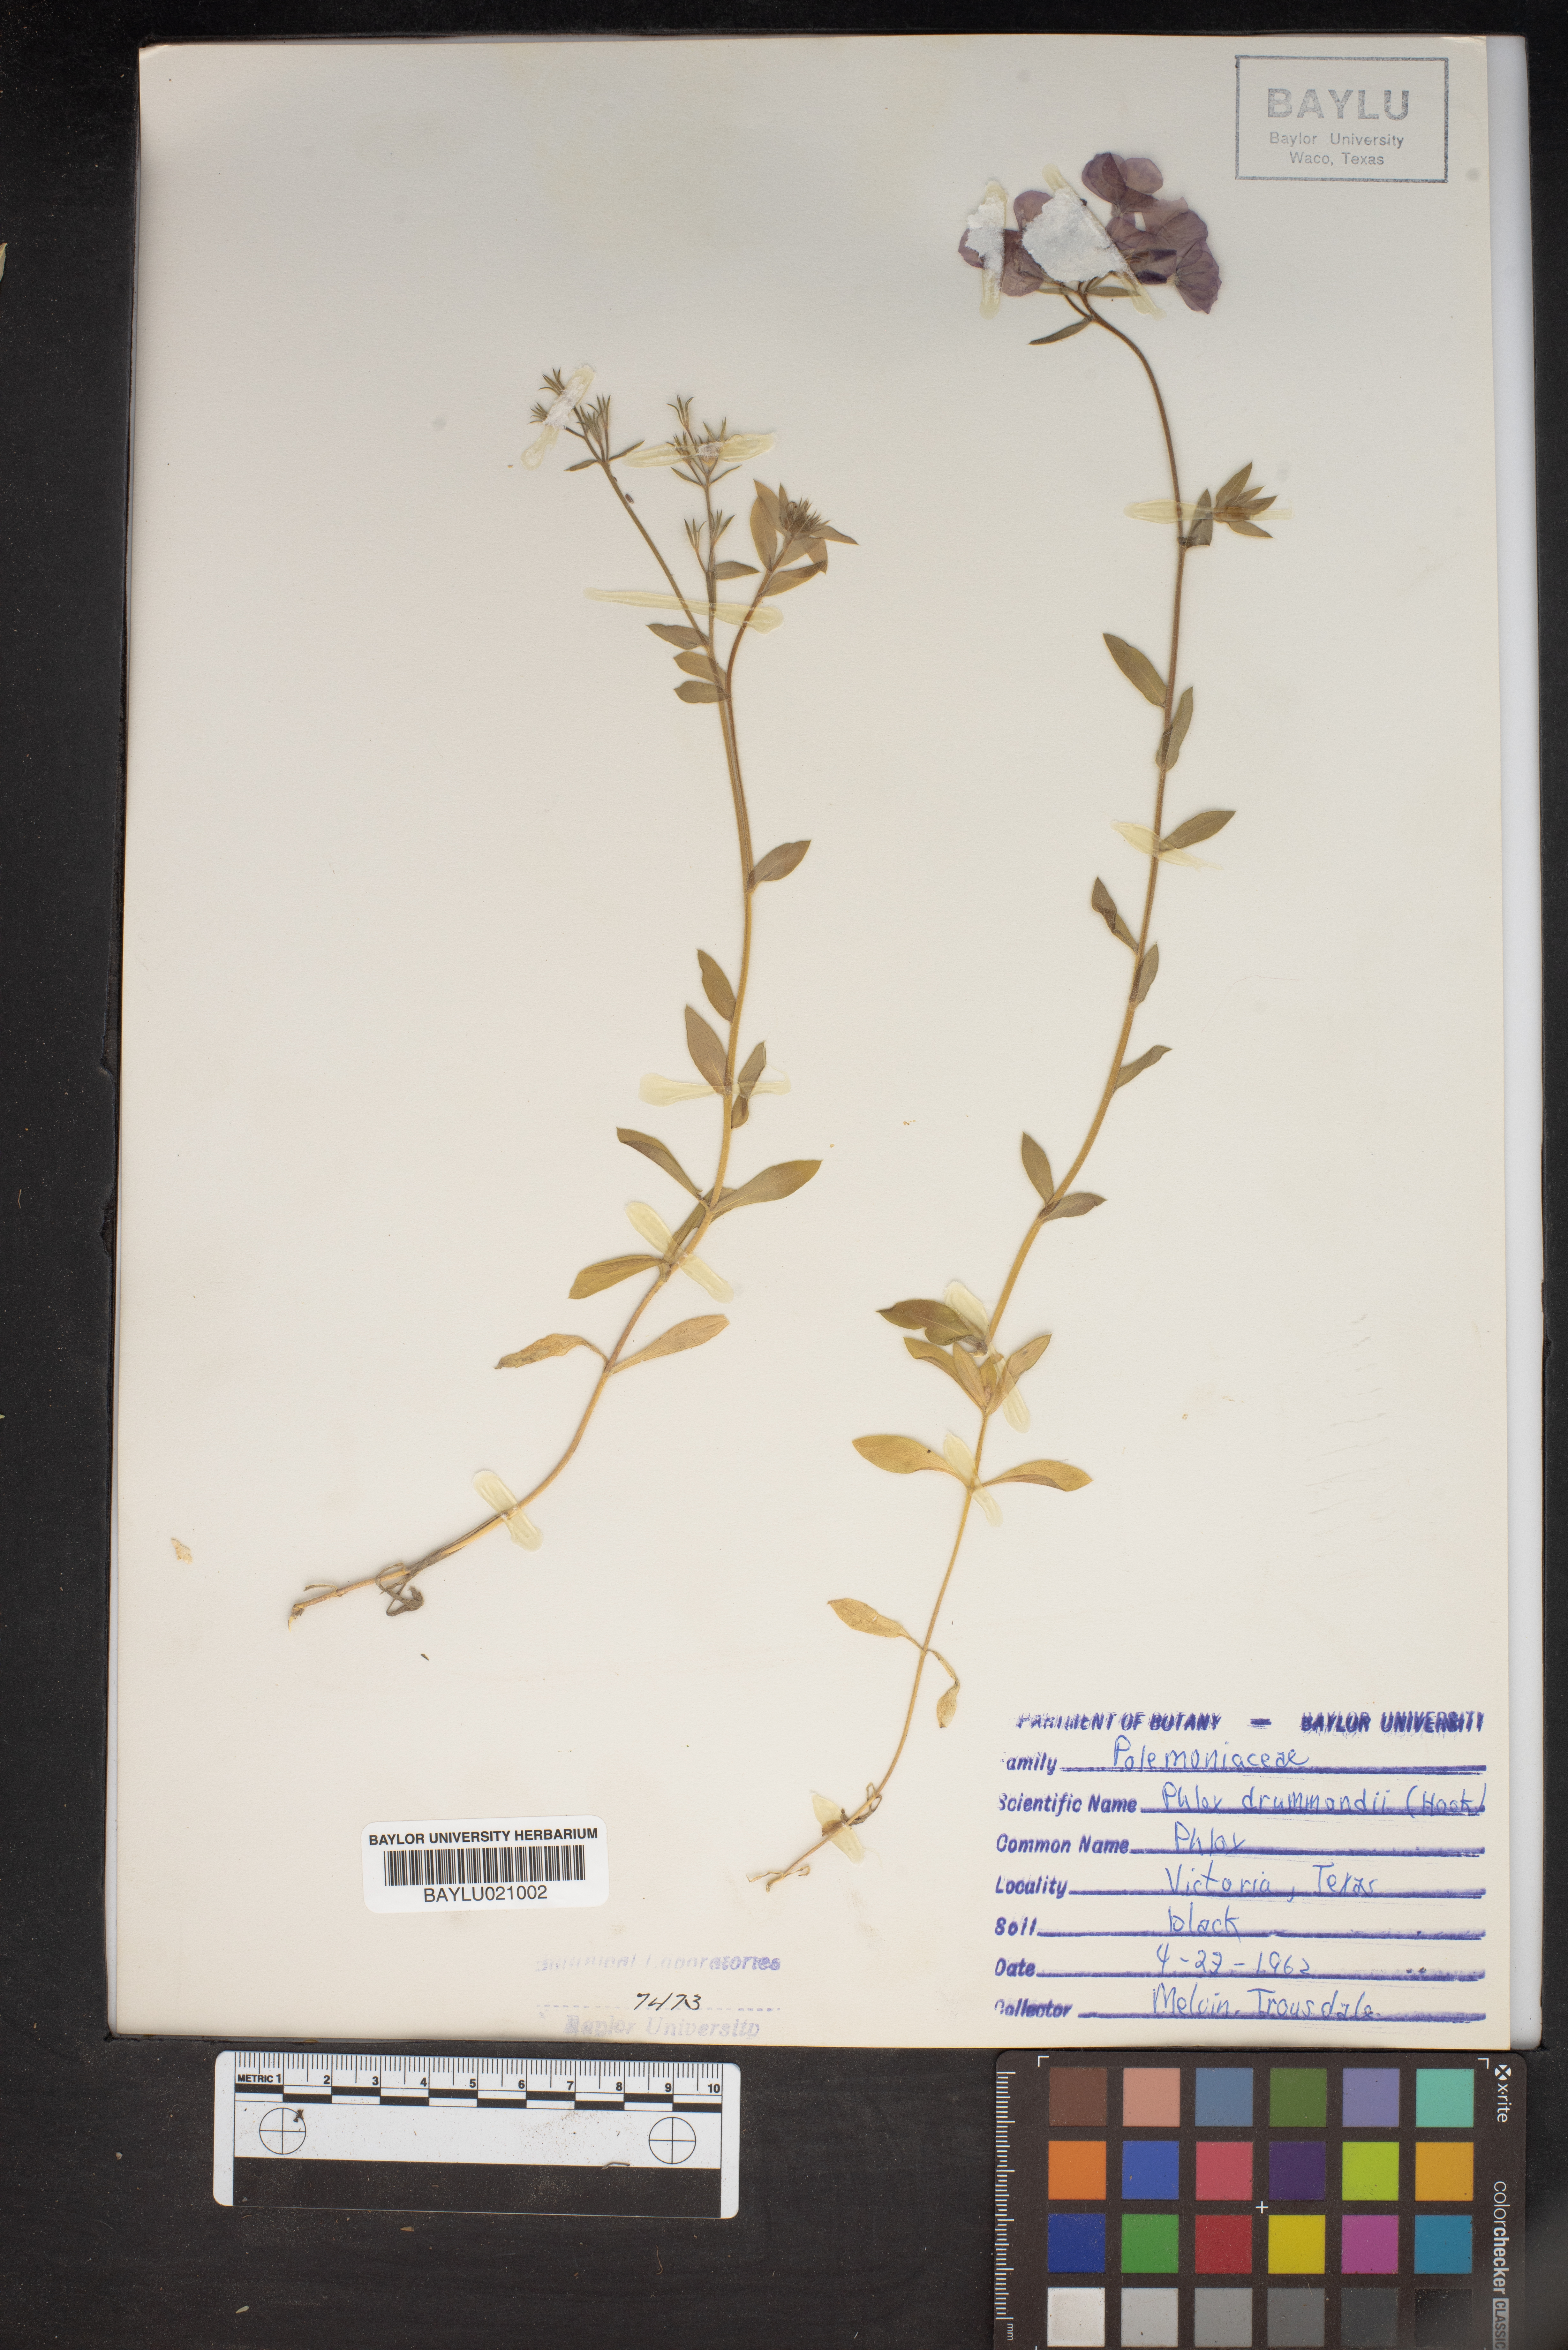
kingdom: Plantae
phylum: Tracheophyta
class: Magnoliopsida
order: Ericales
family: Polemoniaceae
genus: Phlox
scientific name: Phlox drummondii
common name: Drummond's phlox
